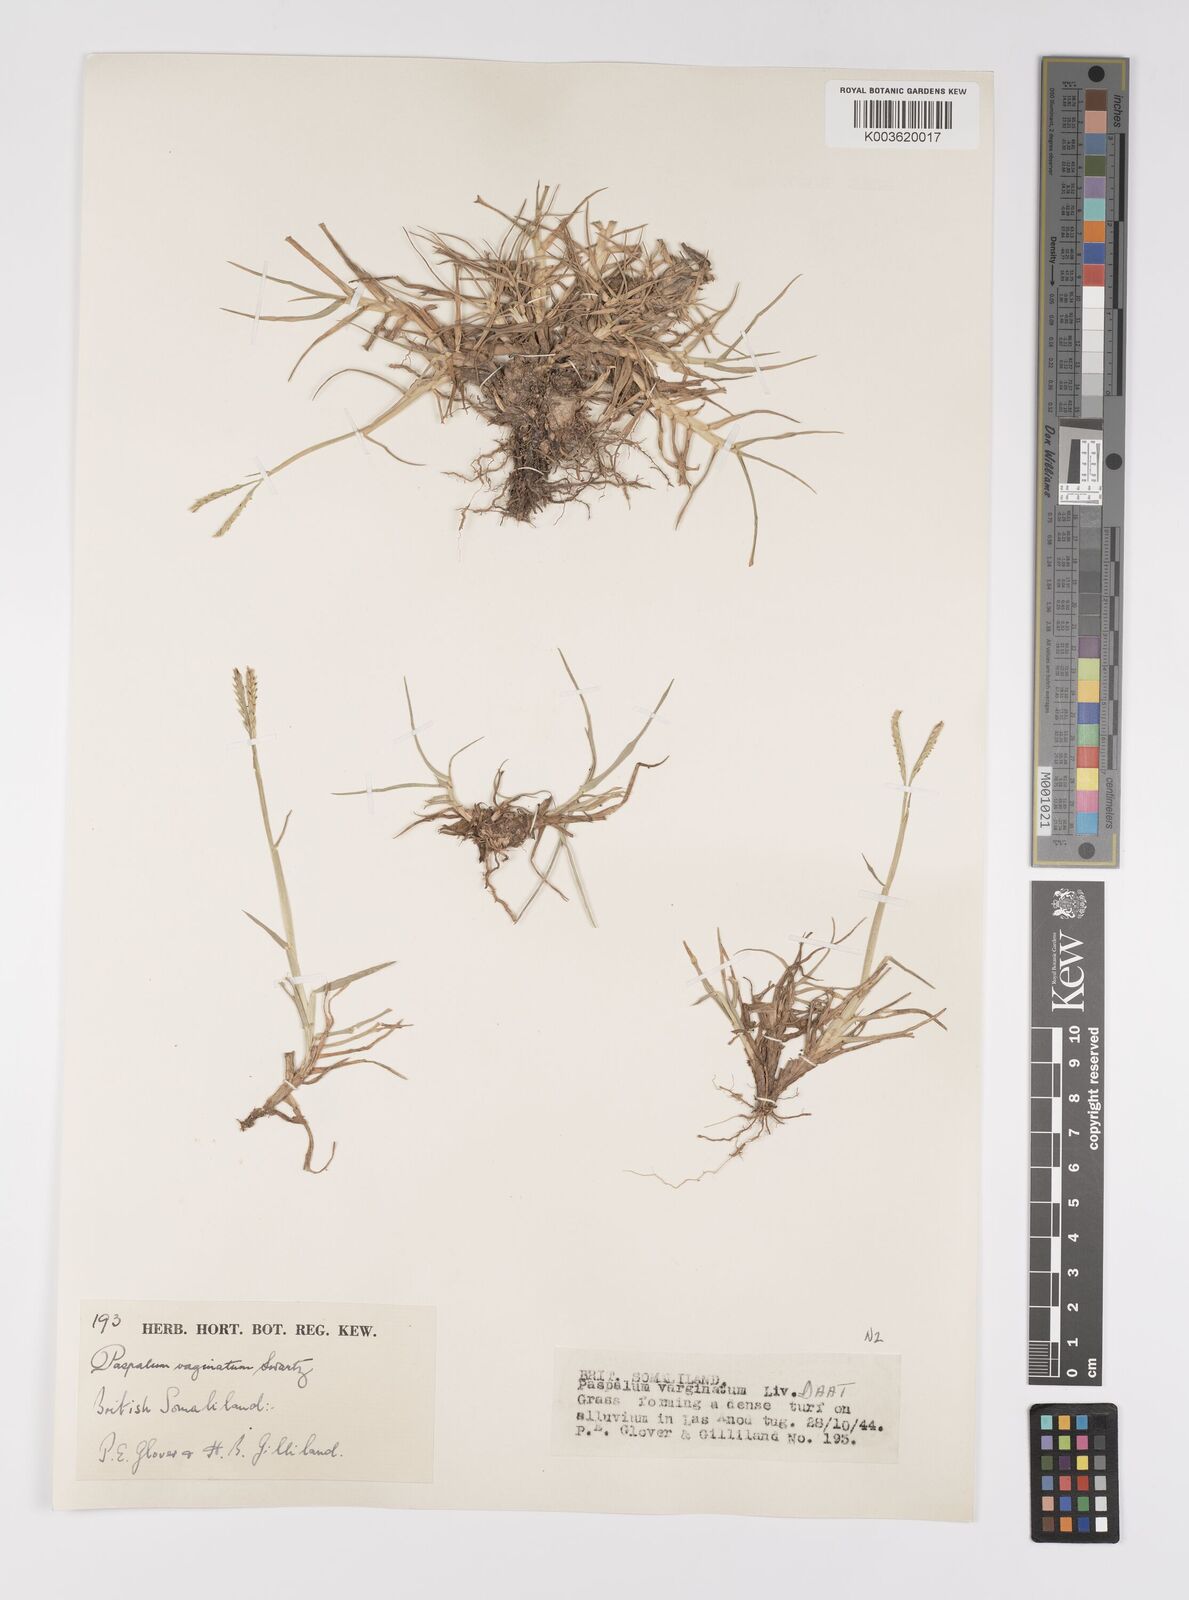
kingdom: Plantae
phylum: Tracheophyta
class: Liliopsida
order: Poales
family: Poaceae
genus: Paspalum
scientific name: Paspalum decumbens
